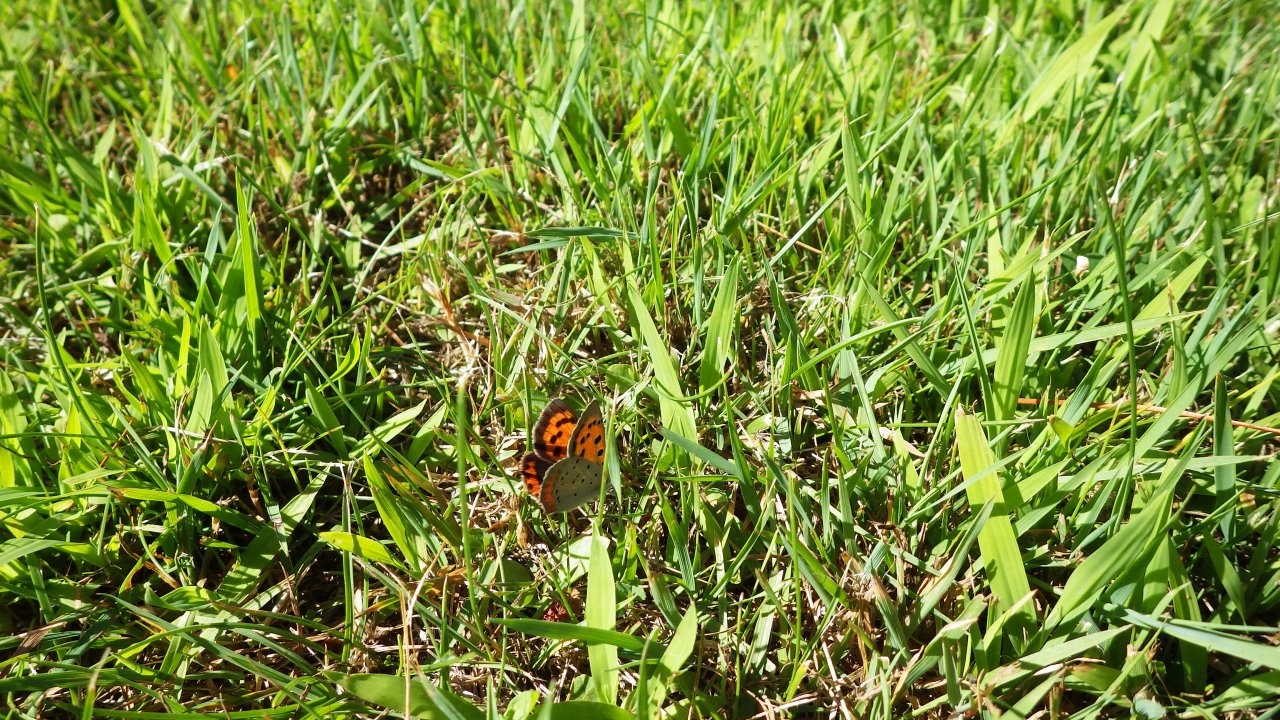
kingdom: Animalia
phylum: Arthropoda
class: Insecta
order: Lepidoptera
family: Lycaenidae
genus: Lycaena
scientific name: Lycaena phlaeas
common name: American Copper
